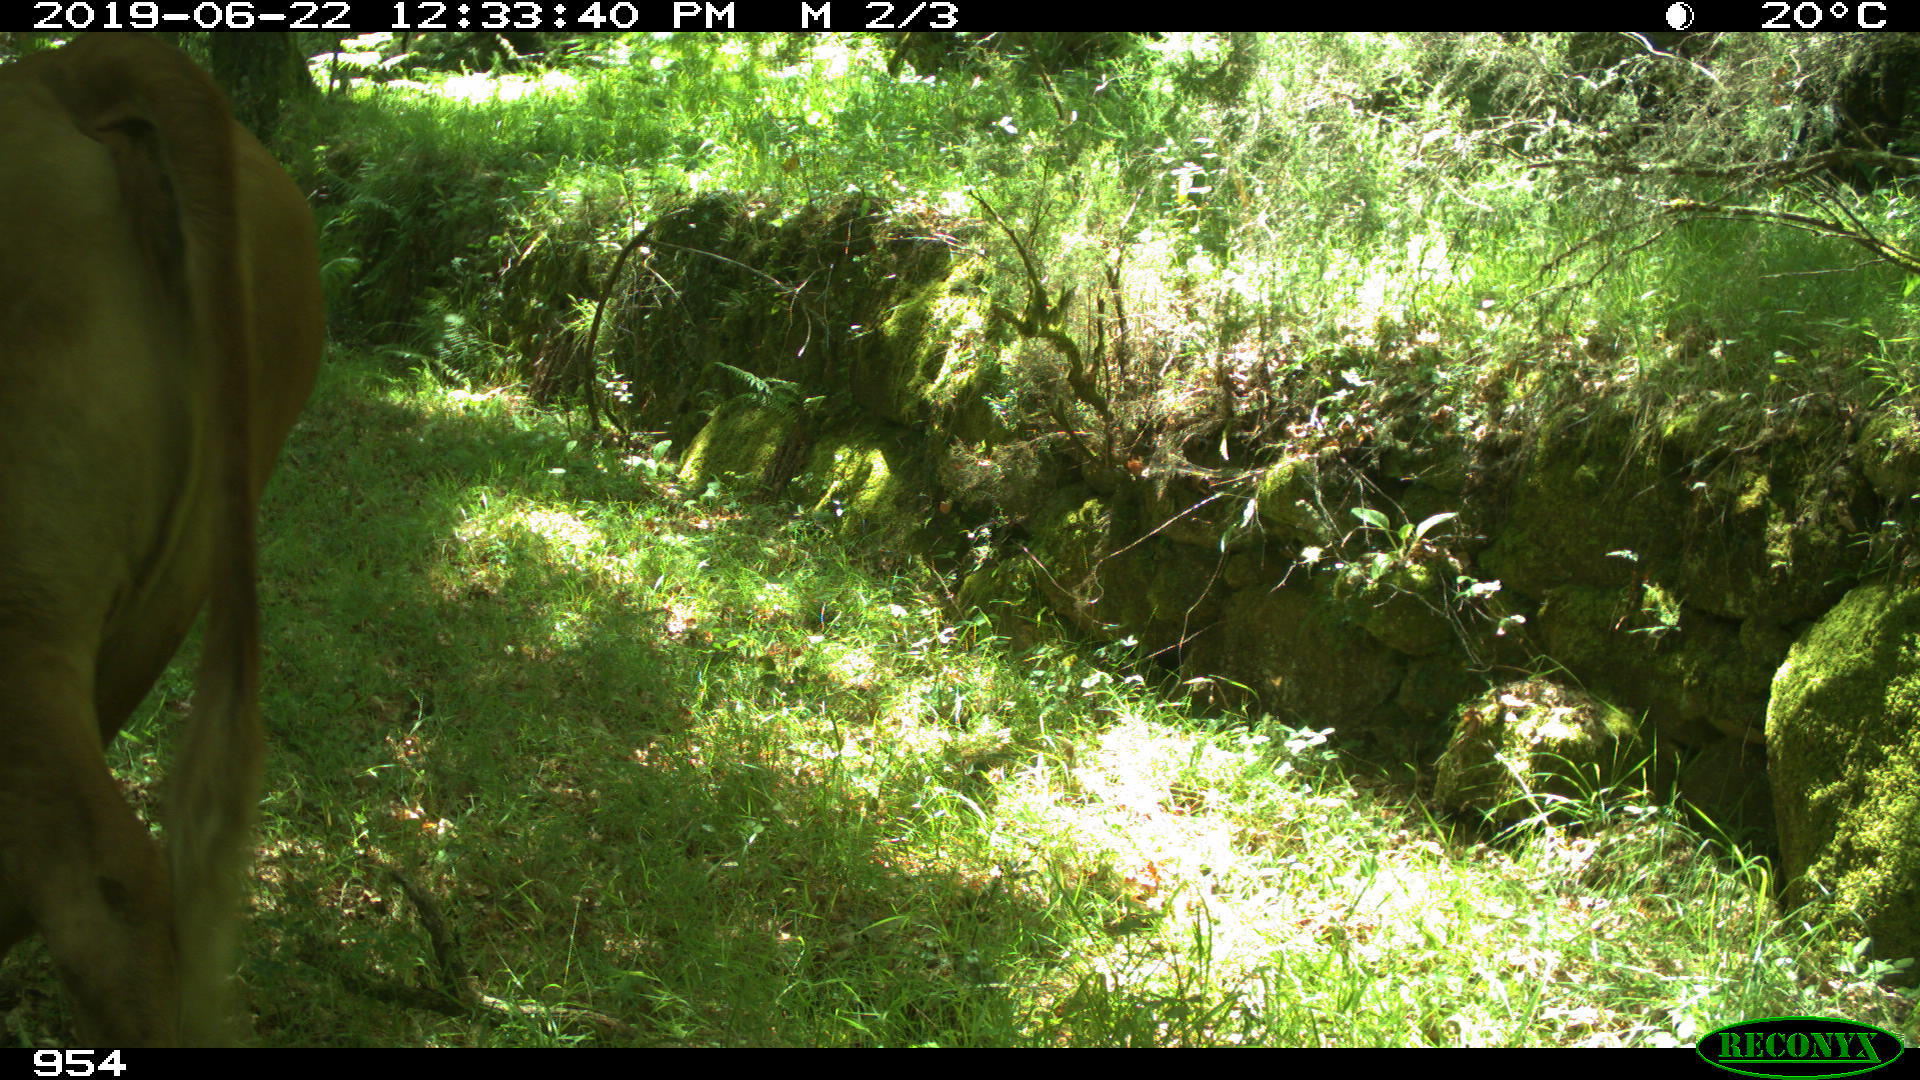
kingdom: Animalia
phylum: Chordata
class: Mammalia
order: Artiodactyla
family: Bovidae
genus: Bos
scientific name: Bos taurus
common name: Domesticated cattle
